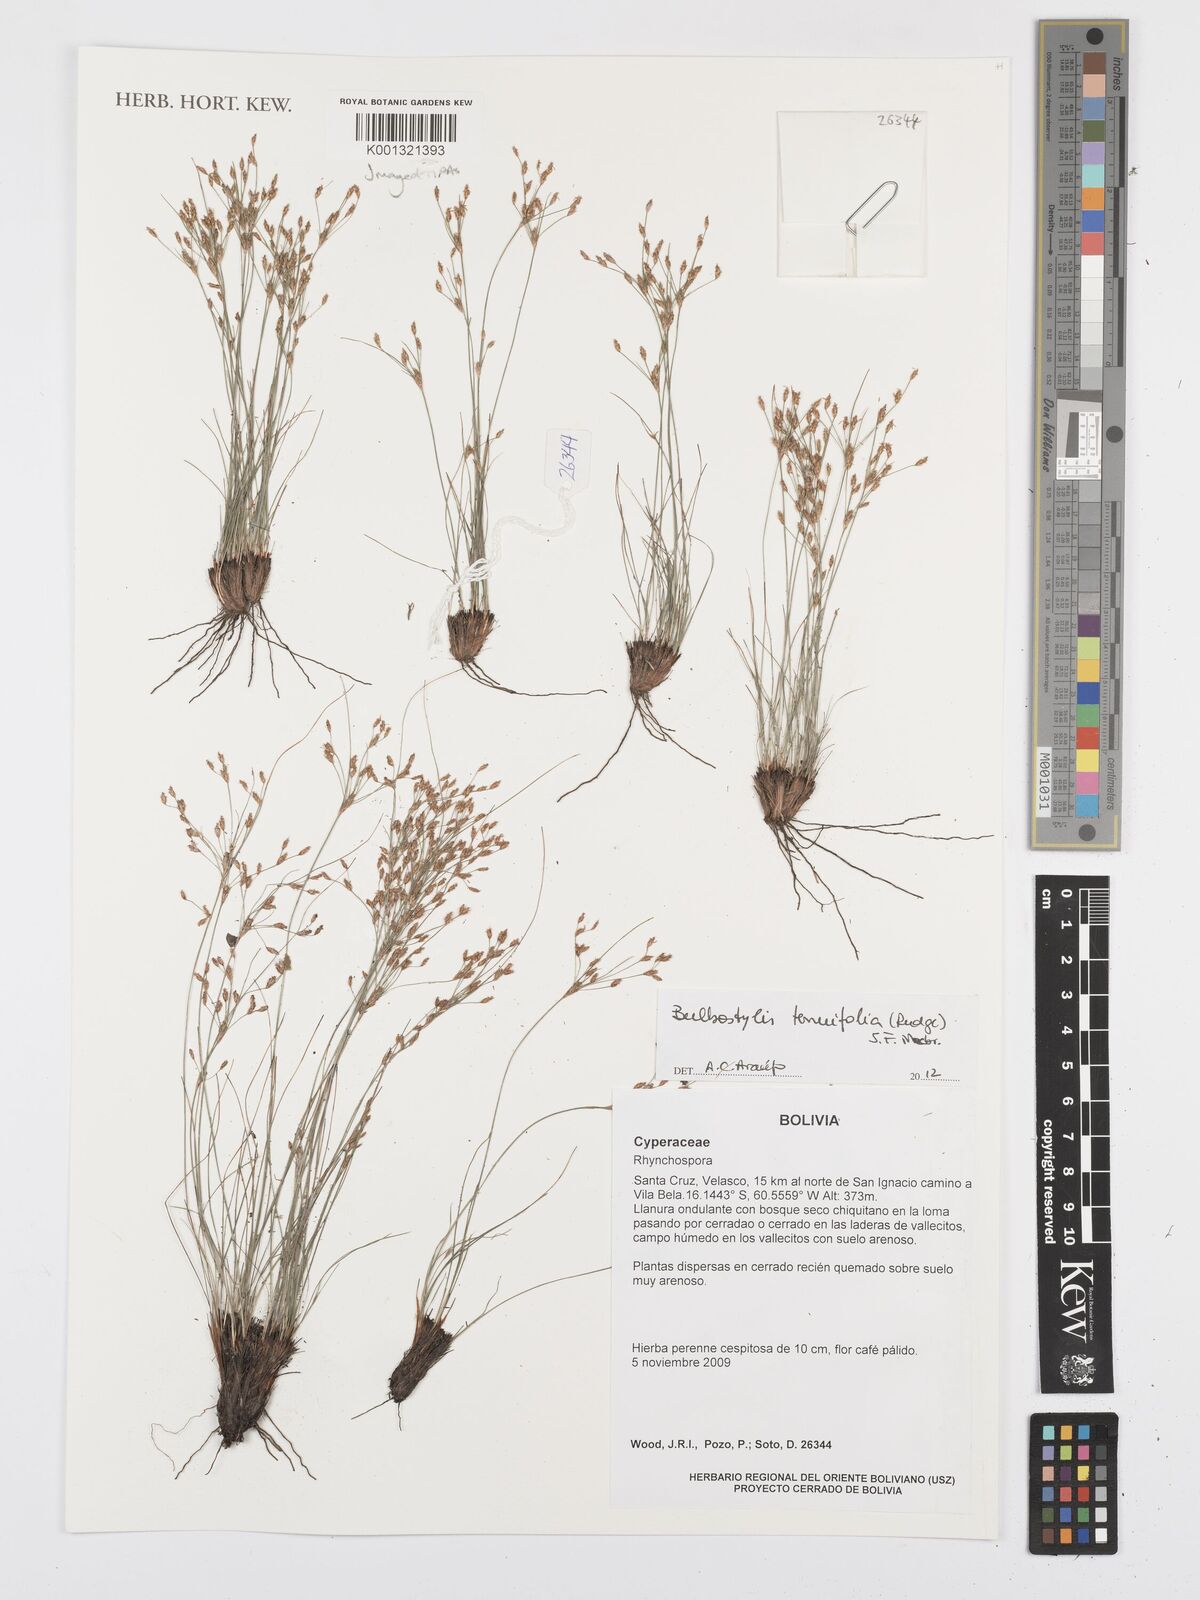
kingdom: Plantae
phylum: Tracheophyta
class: Liliopsida
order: Poales
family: Cyperaceae
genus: Bulbostylis
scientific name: Bulbostylis tenuifolia
